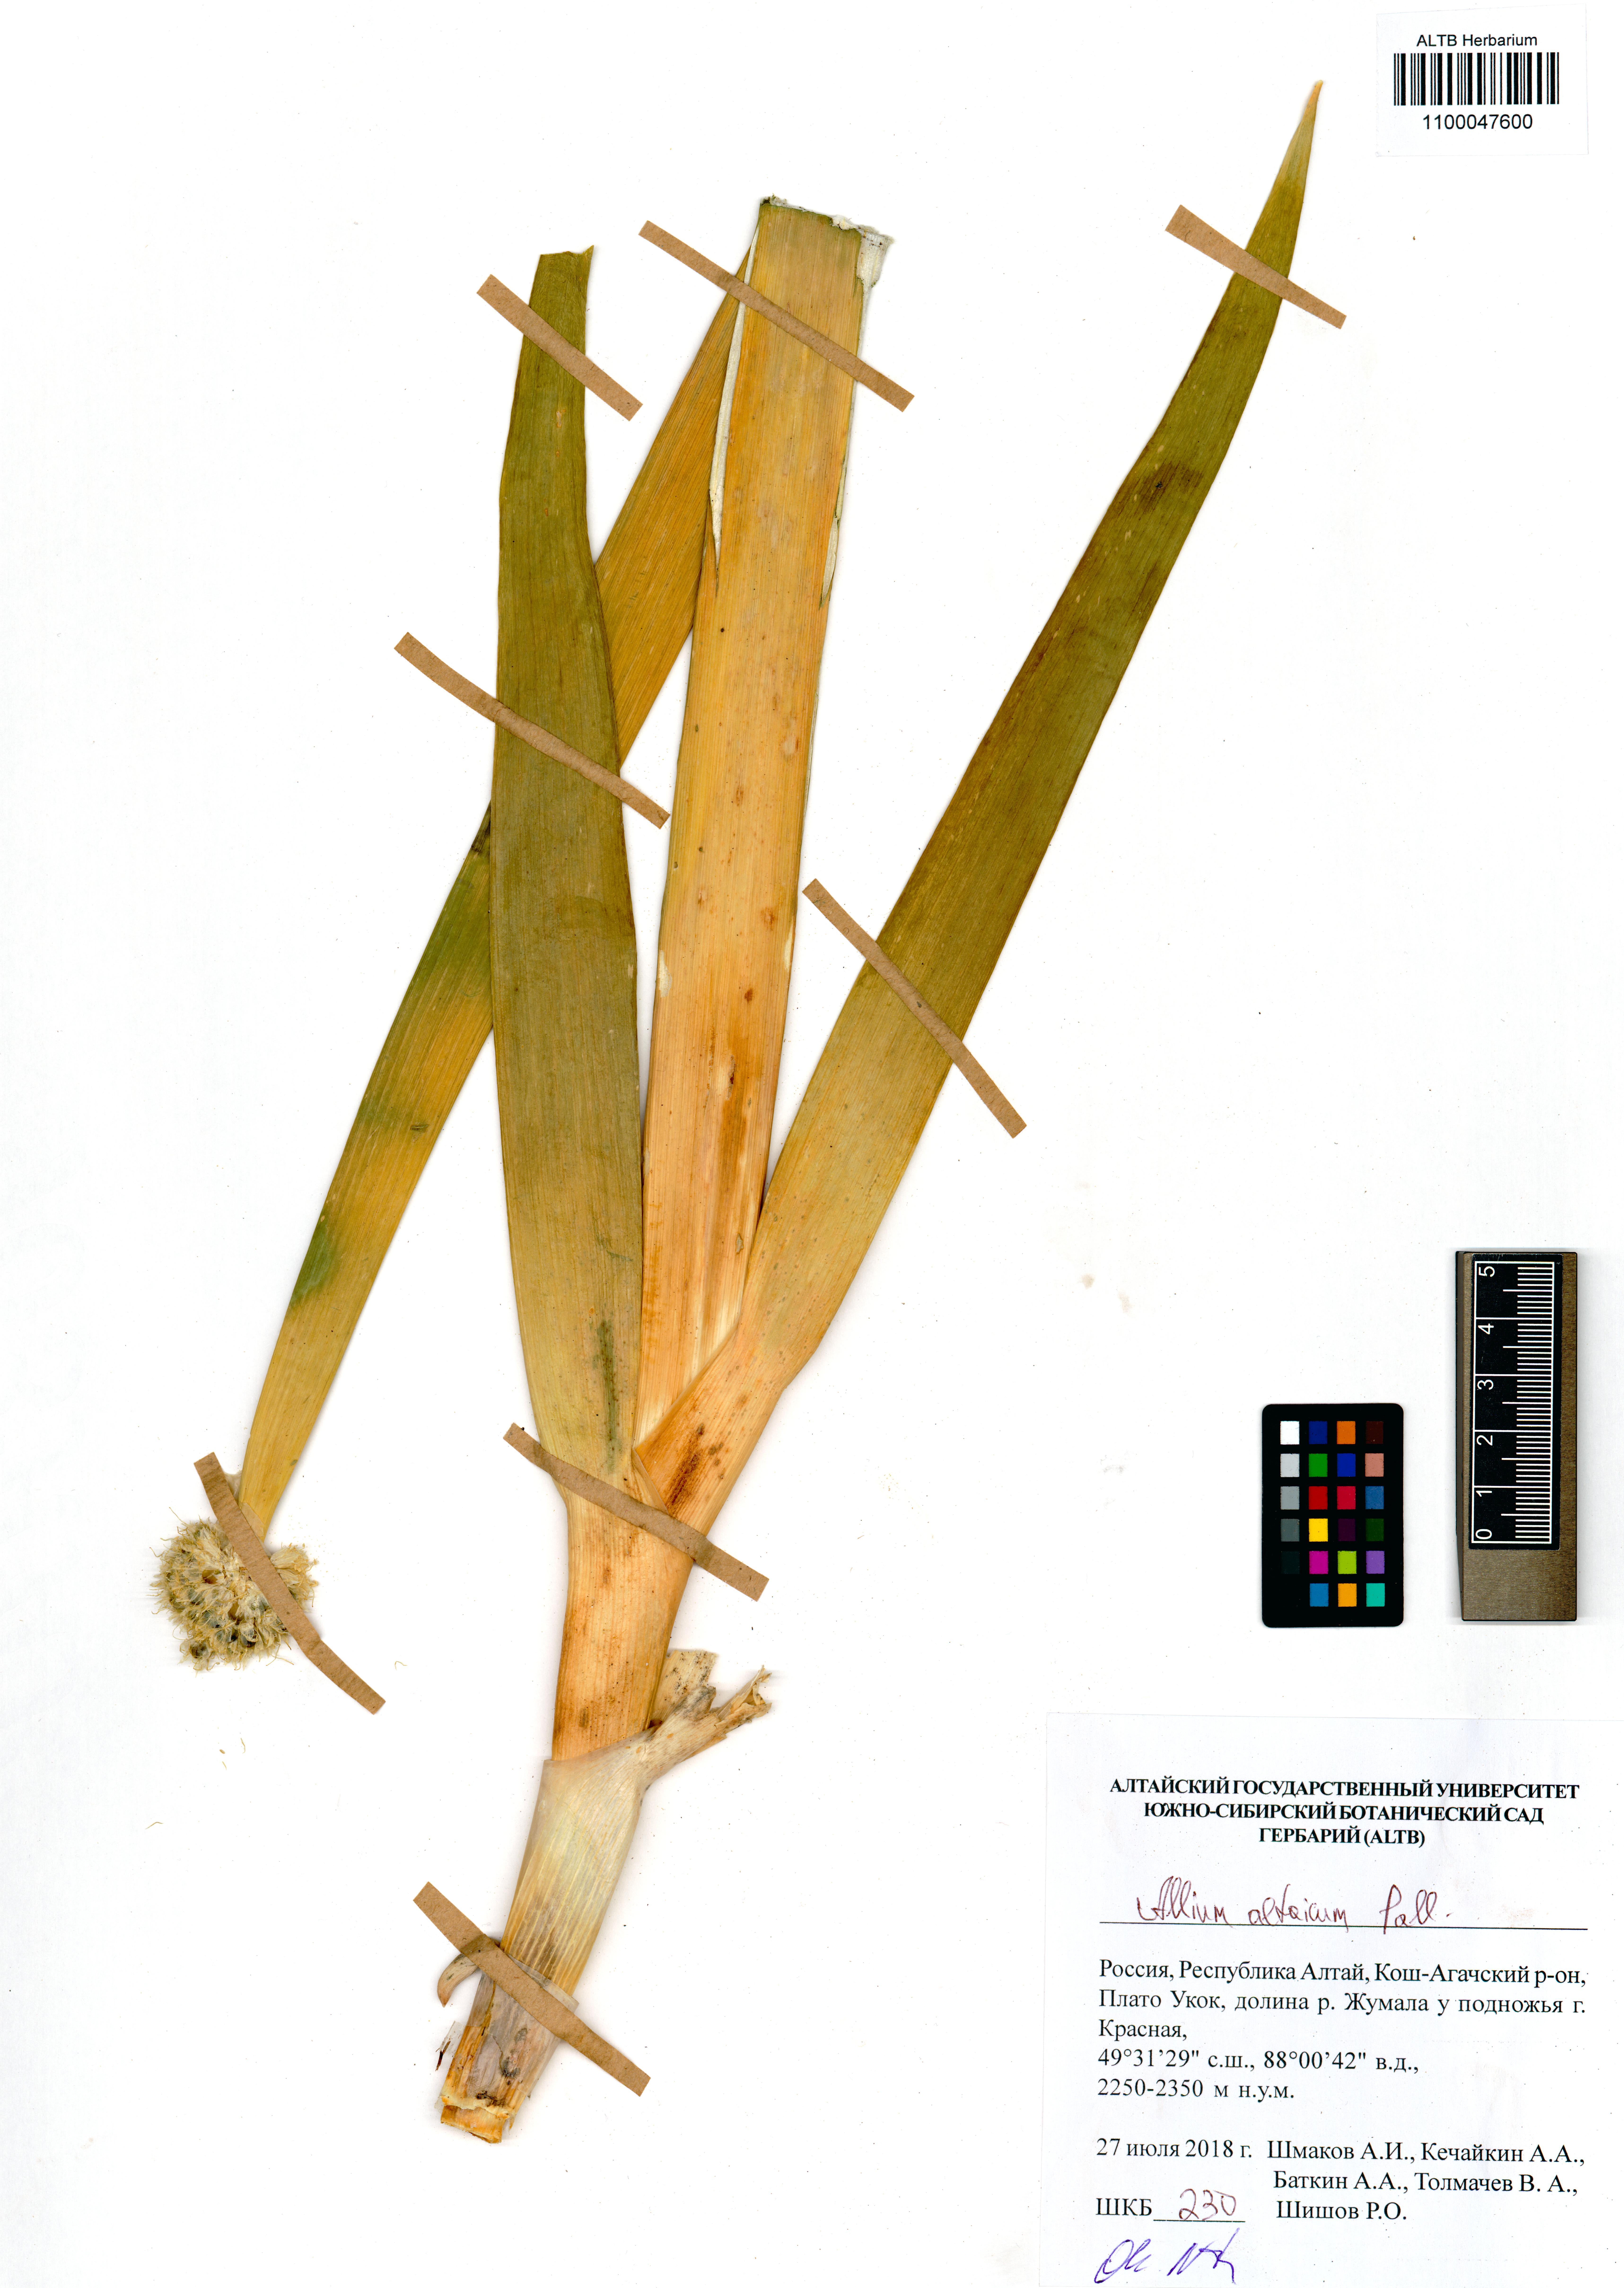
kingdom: Plantae
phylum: Tracheophyta
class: Liliopsida
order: Asparagales
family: Amaryllidaceae
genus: Allium
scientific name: Allium altaicum
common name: Altai onion
